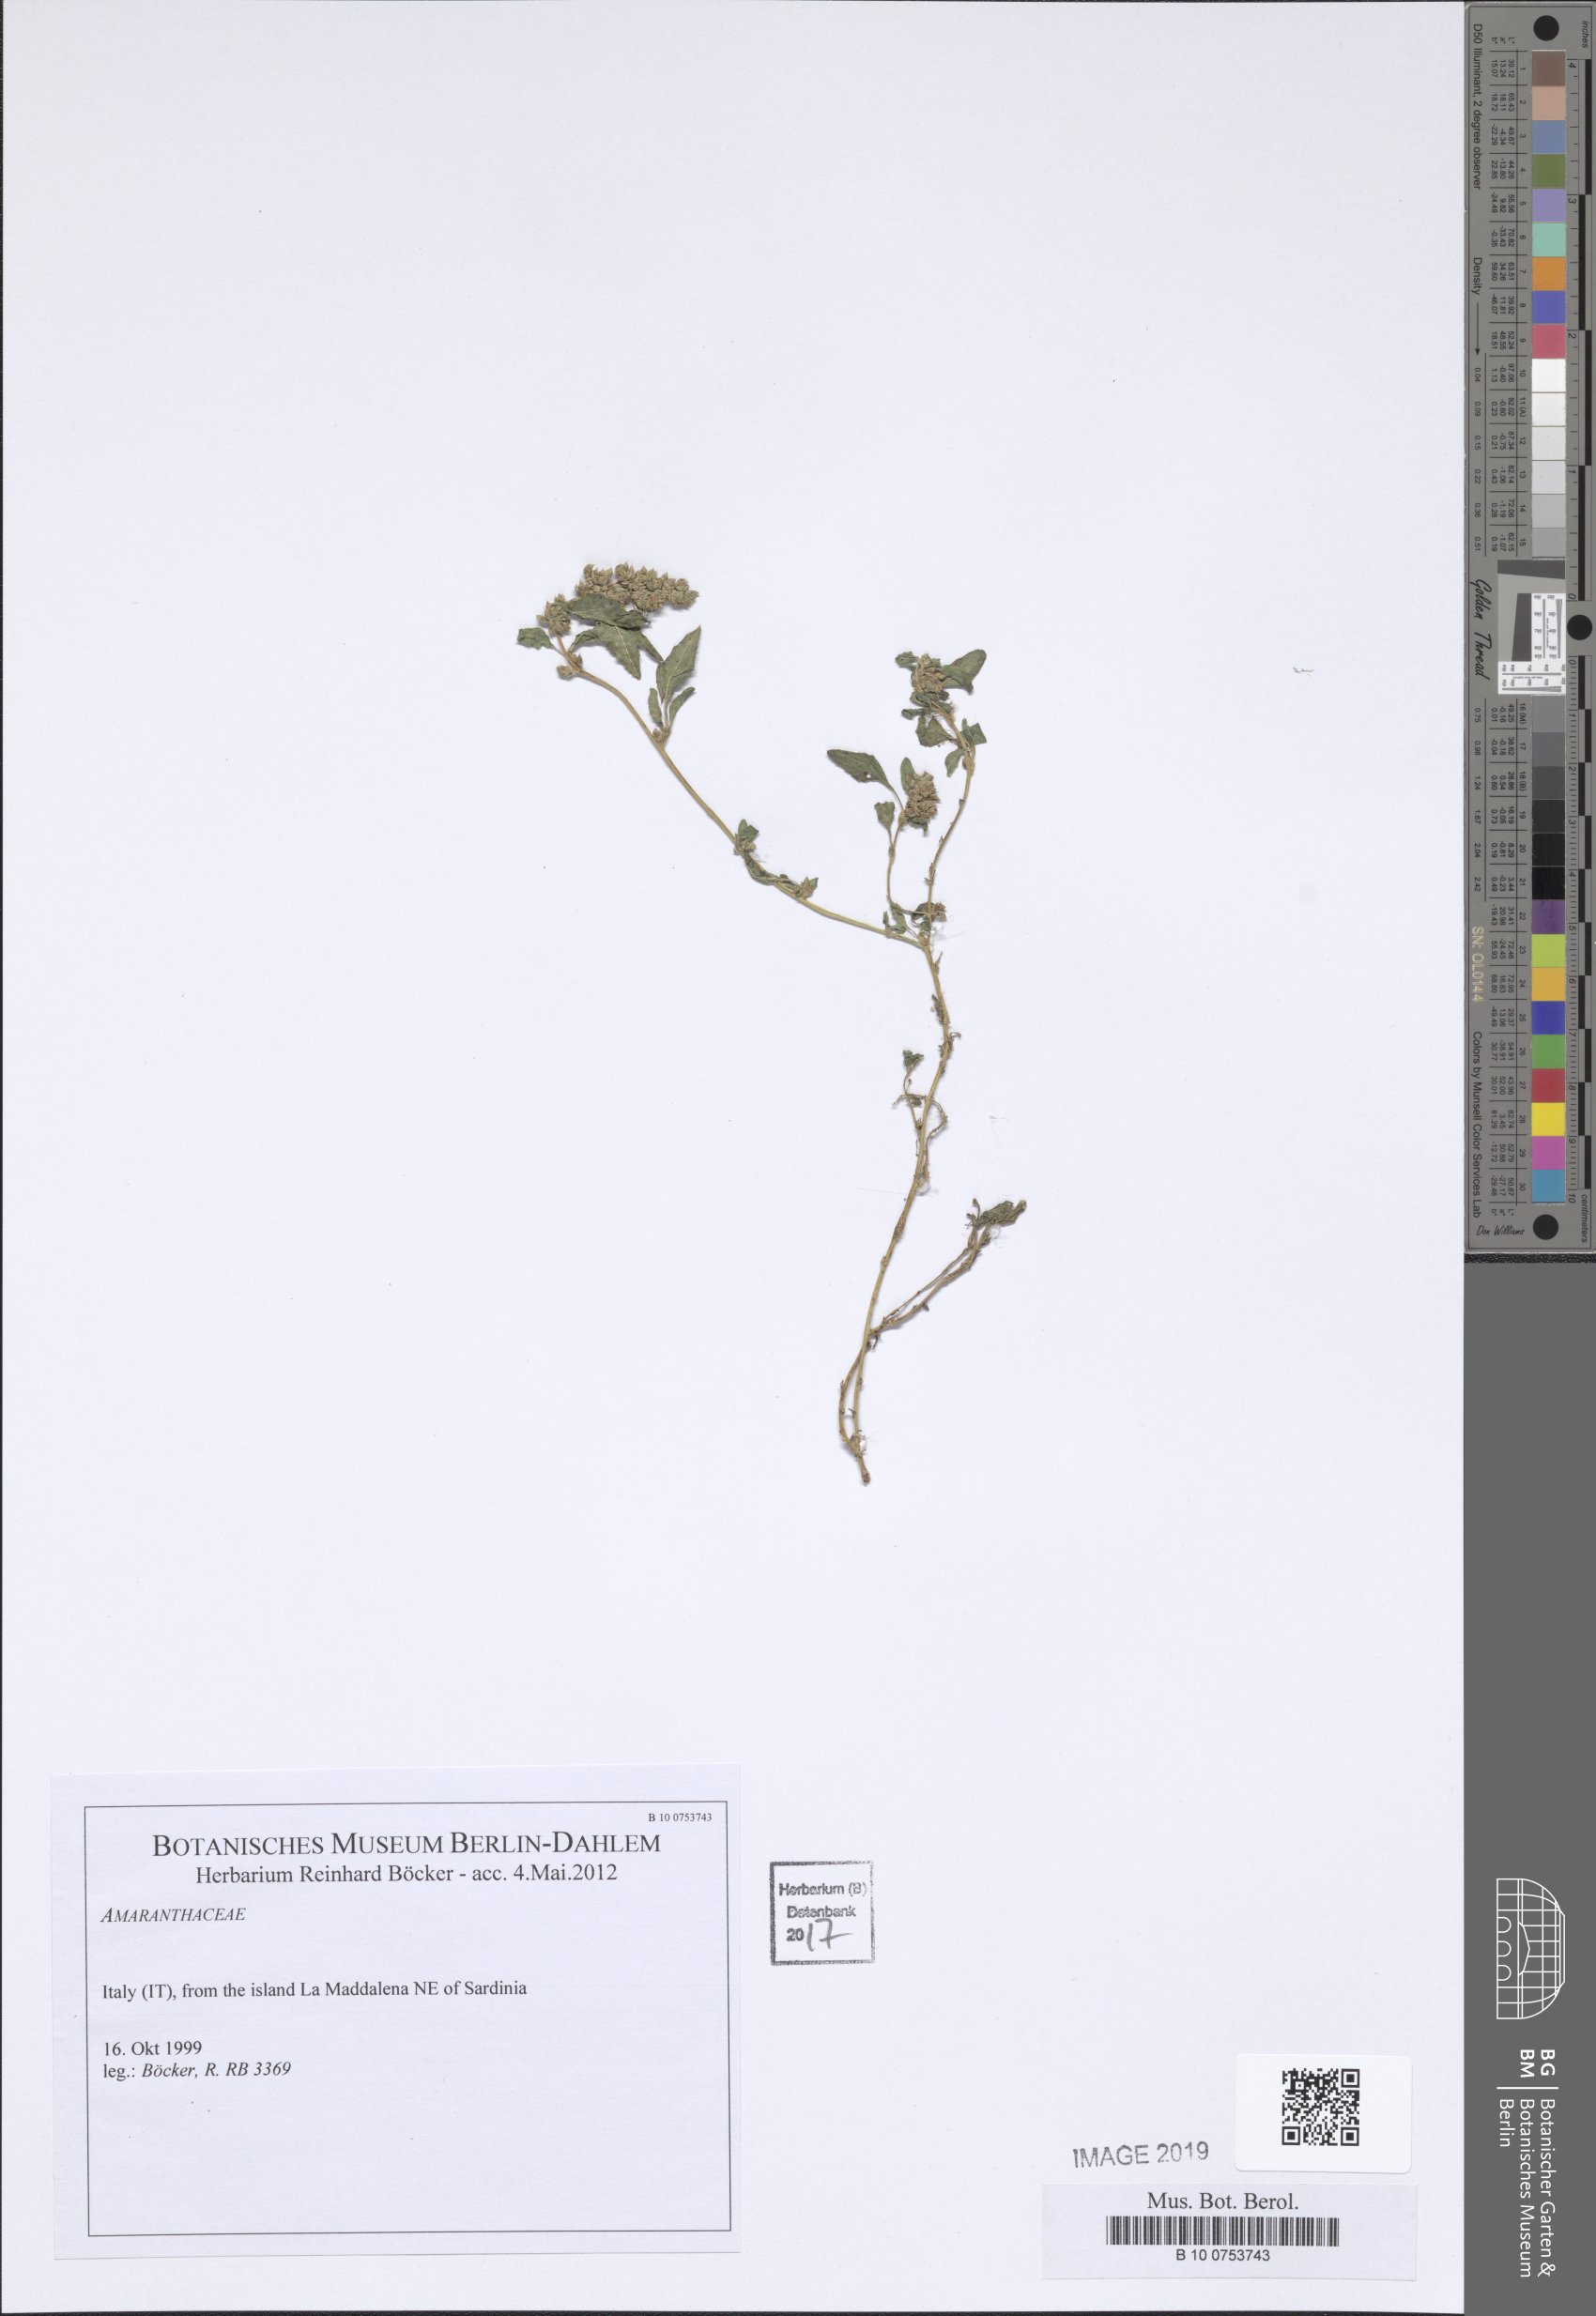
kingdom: Plantae
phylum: Tracheophyta
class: Magnoliopsida
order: Caryophyllales
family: Amaranthaceae
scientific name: Amaranthaceae
